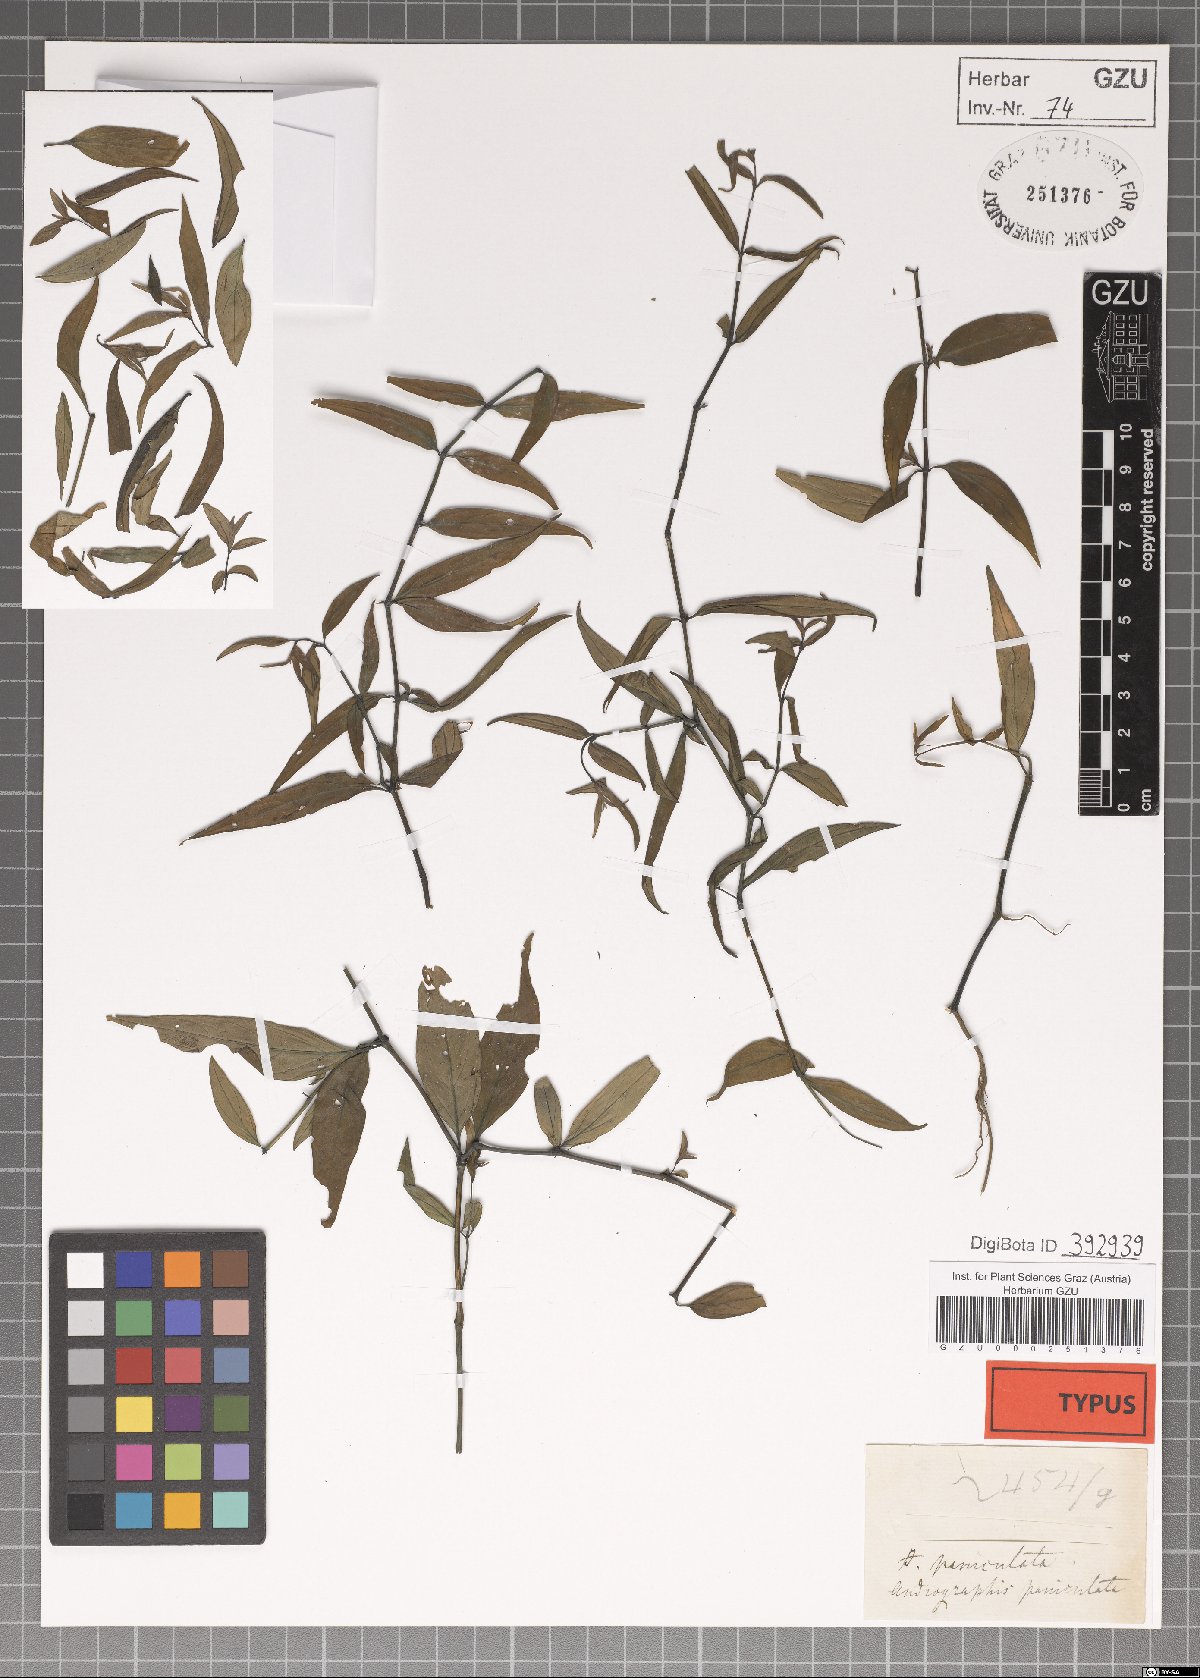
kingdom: Plantae
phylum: Tracheophyta
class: Magnoliopsida
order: Lamiales
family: Acanthaceae
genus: Andrographis
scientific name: Andrographis paniculata
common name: Green chireta
